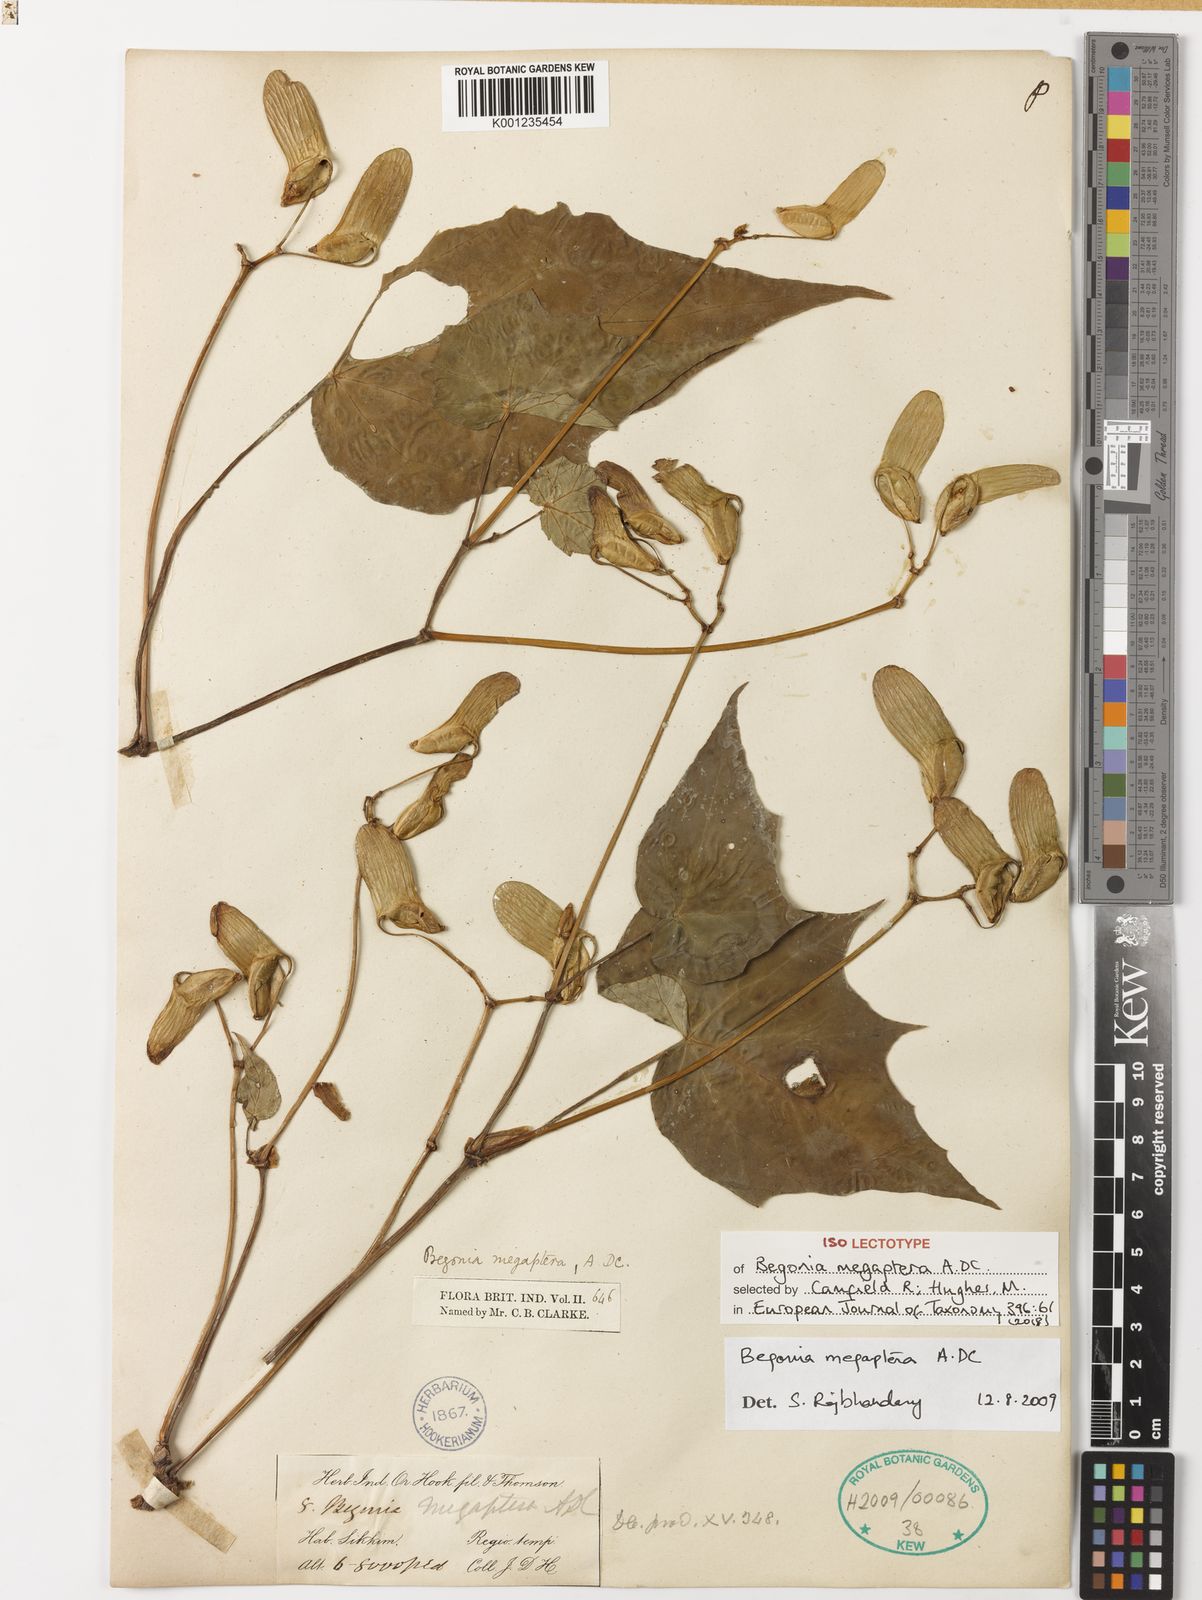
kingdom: Plantae
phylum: Tracheophyta
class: Magnoliopsida
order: Cucurbitales
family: Begoniaceae
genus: Begonia
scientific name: Begonia megaptera
